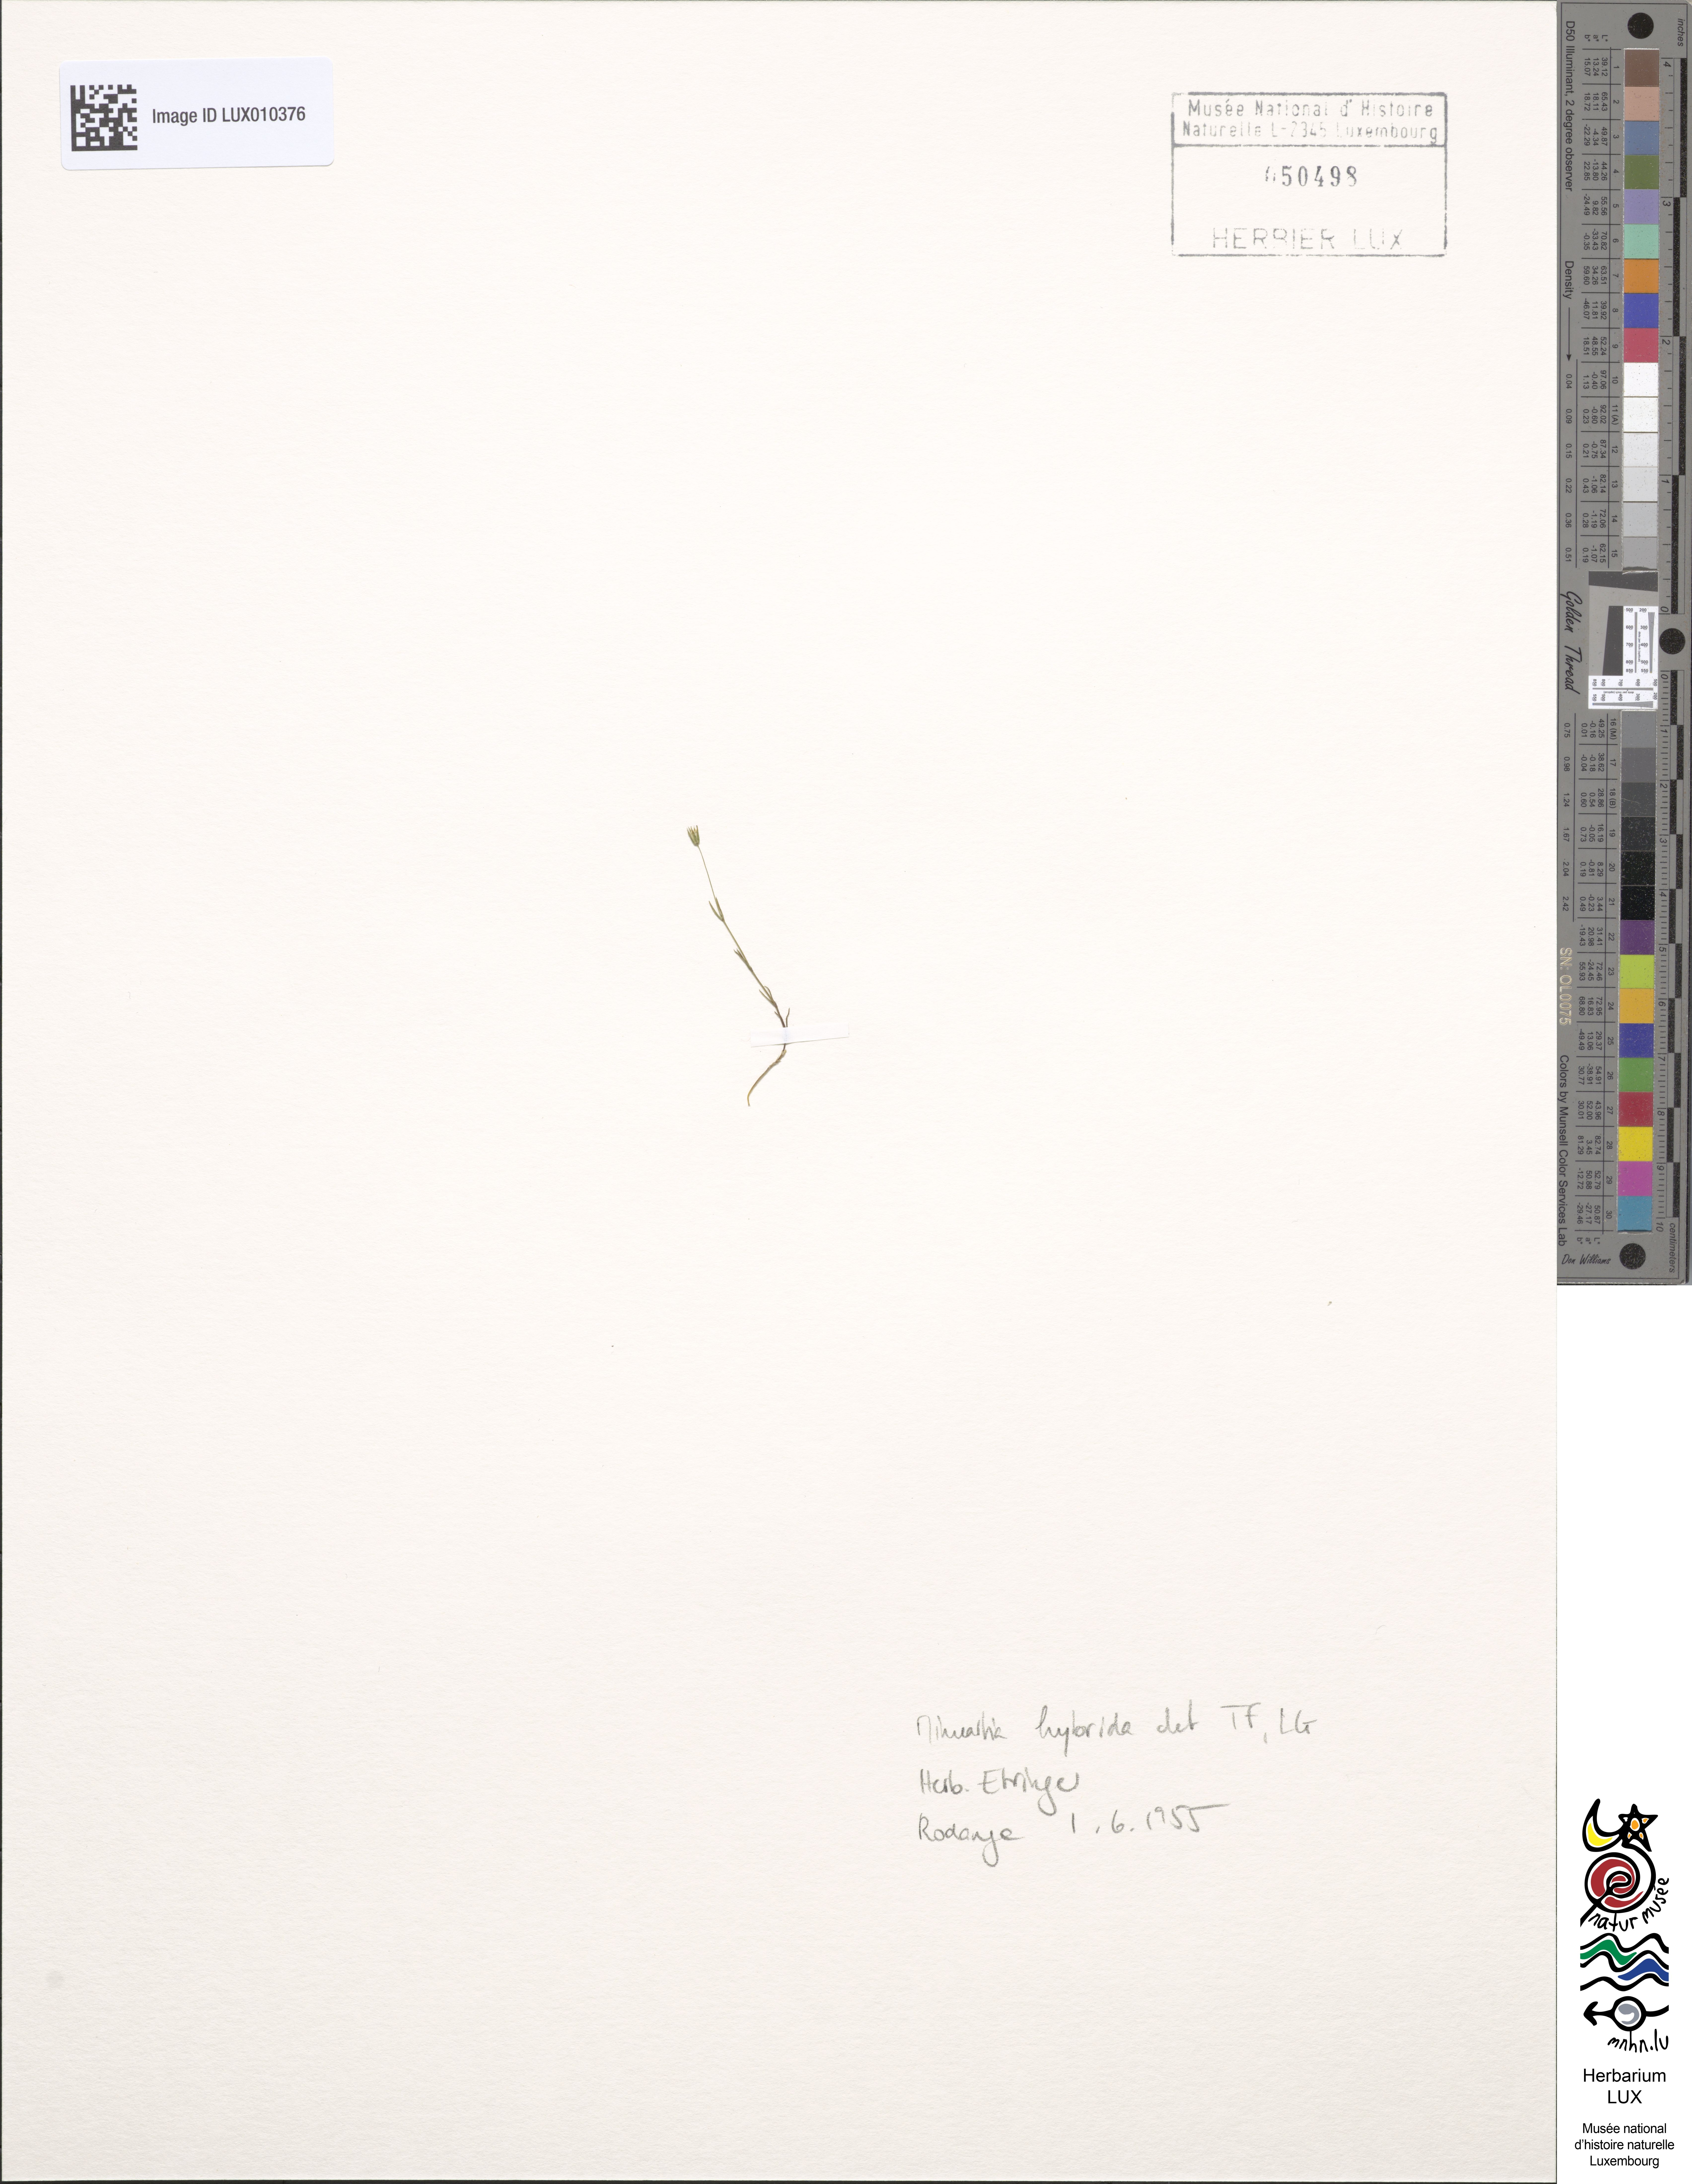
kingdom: Plantae
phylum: Tracheophyta
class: Magnoliopsida
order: Caryophyllales
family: Caryophyllaceae
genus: Sabulina
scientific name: Sabulina tenuifolia
